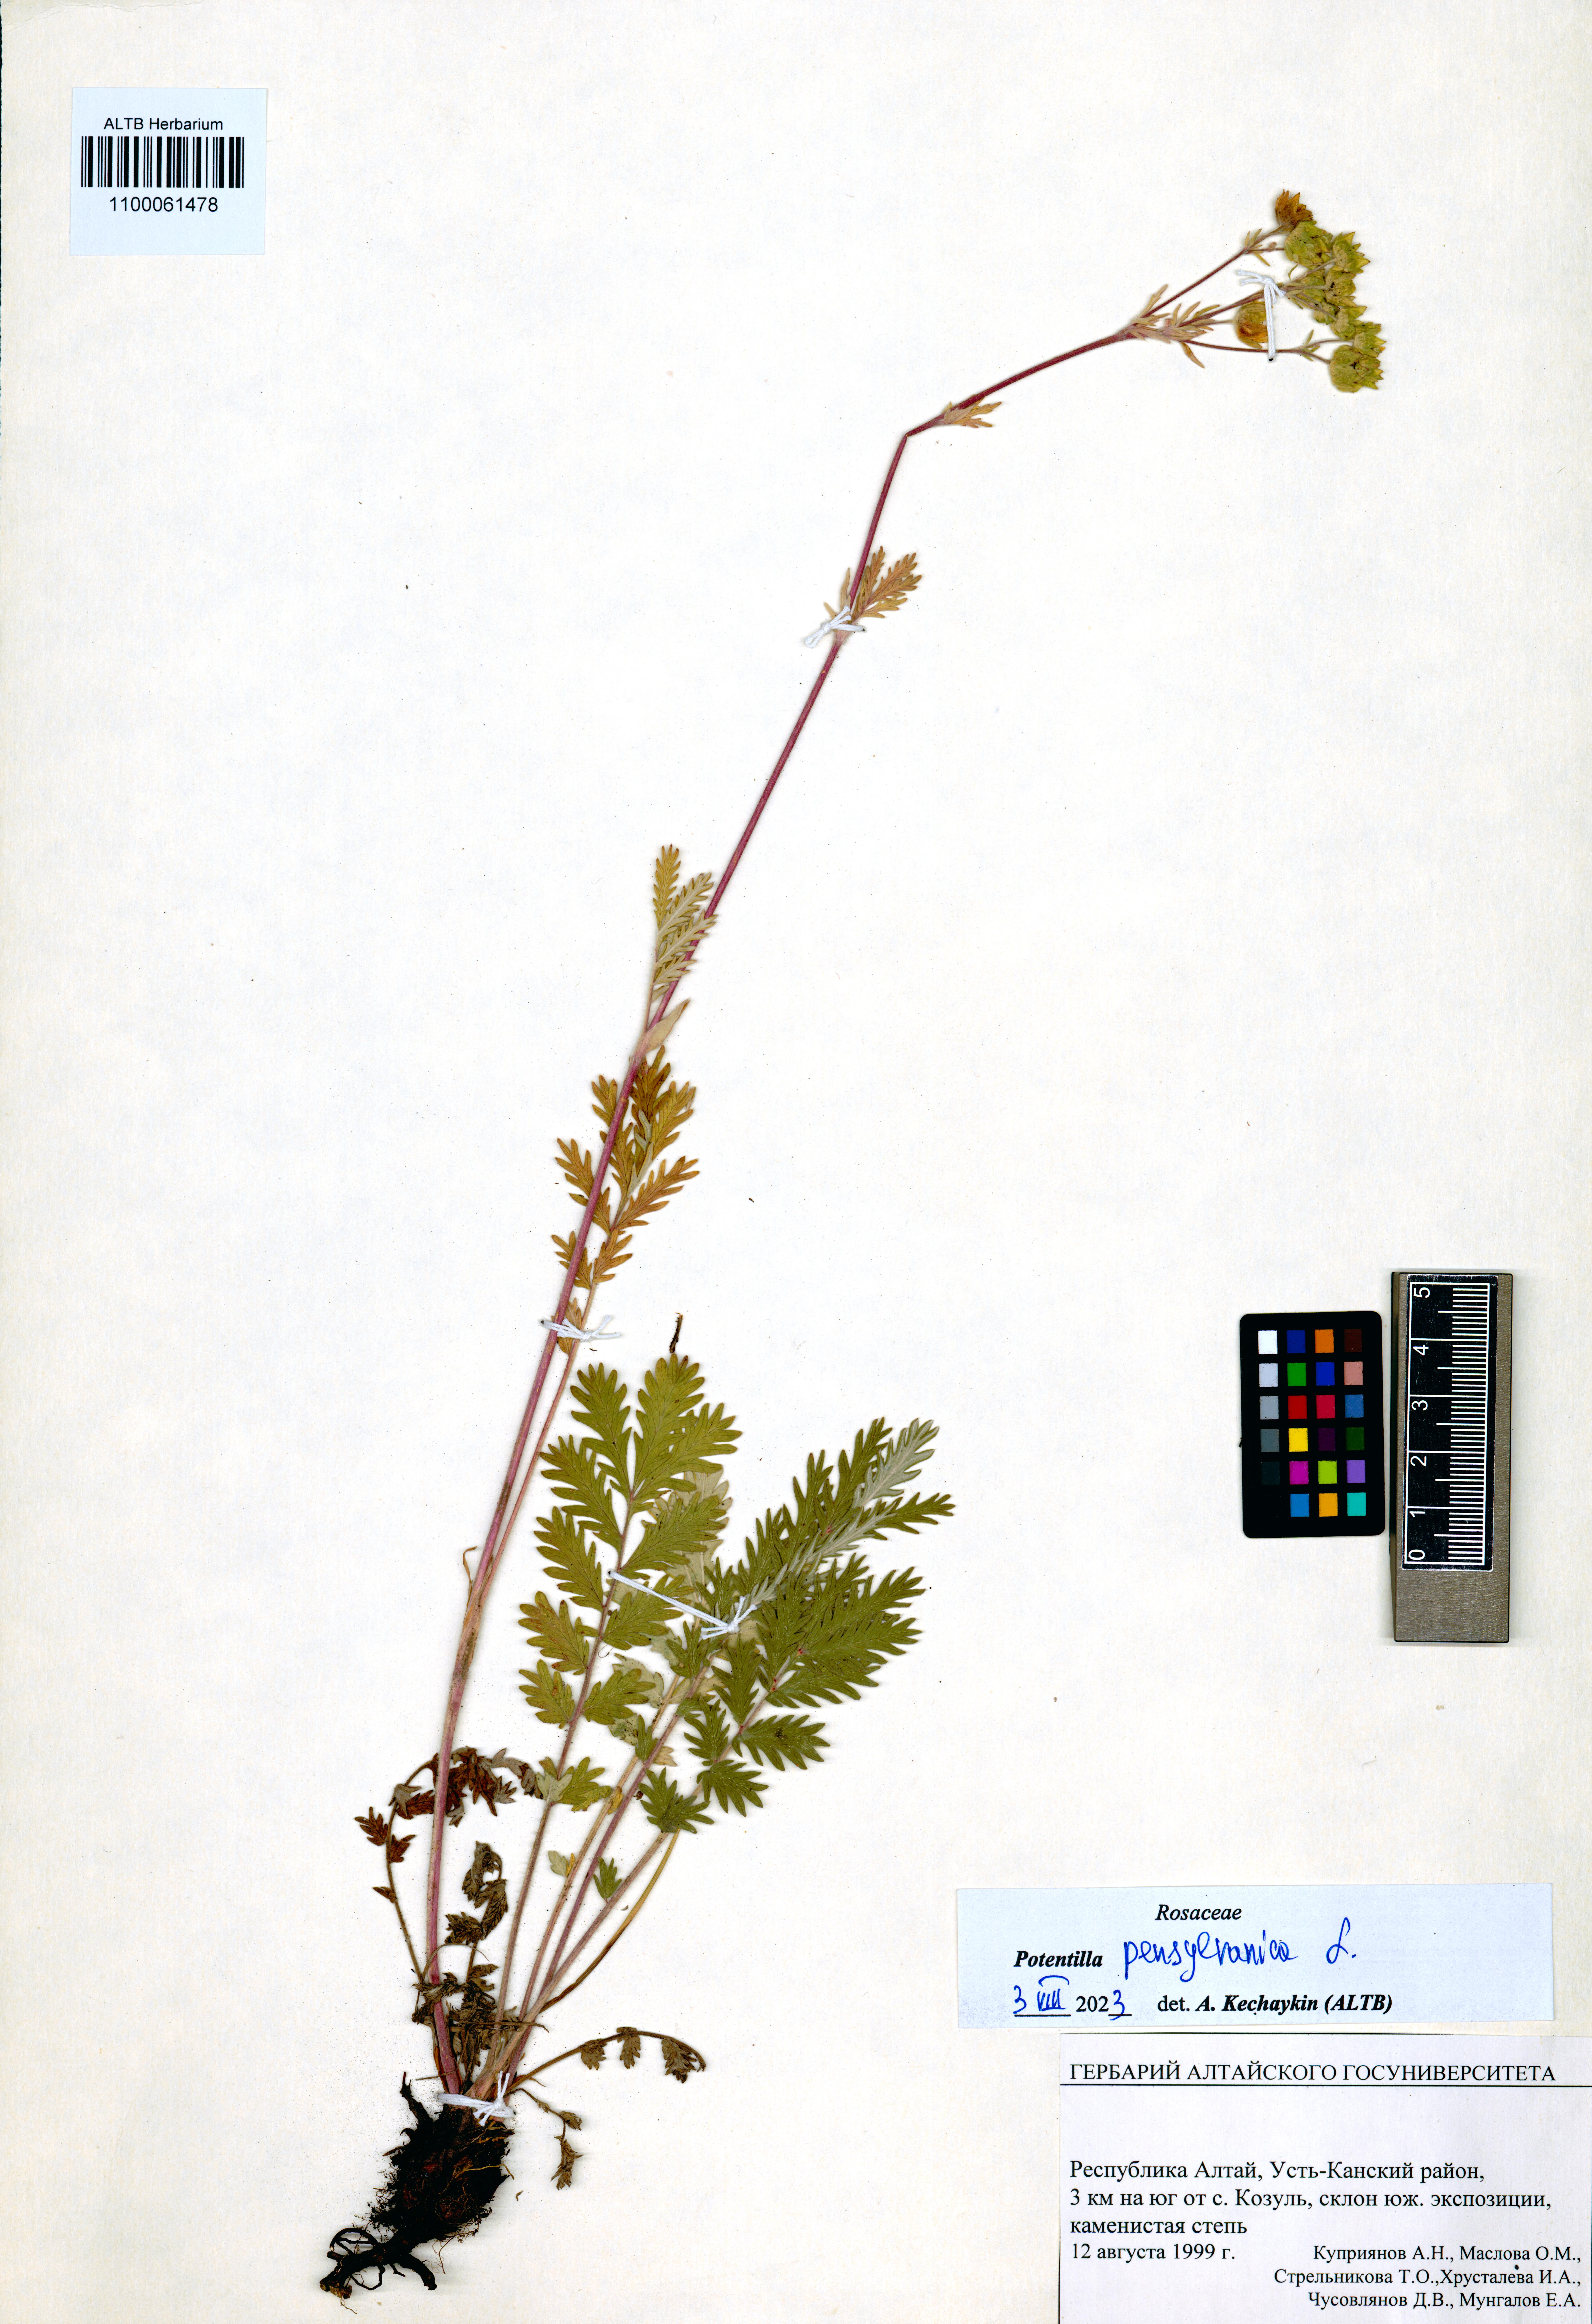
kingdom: Plantae
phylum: Tracheophyta
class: Magnoliopsida
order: Rosales
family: Rosaceae
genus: Potentilla
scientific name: Potentilla pensylvanica
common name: Pennsylvania cinquefoil
